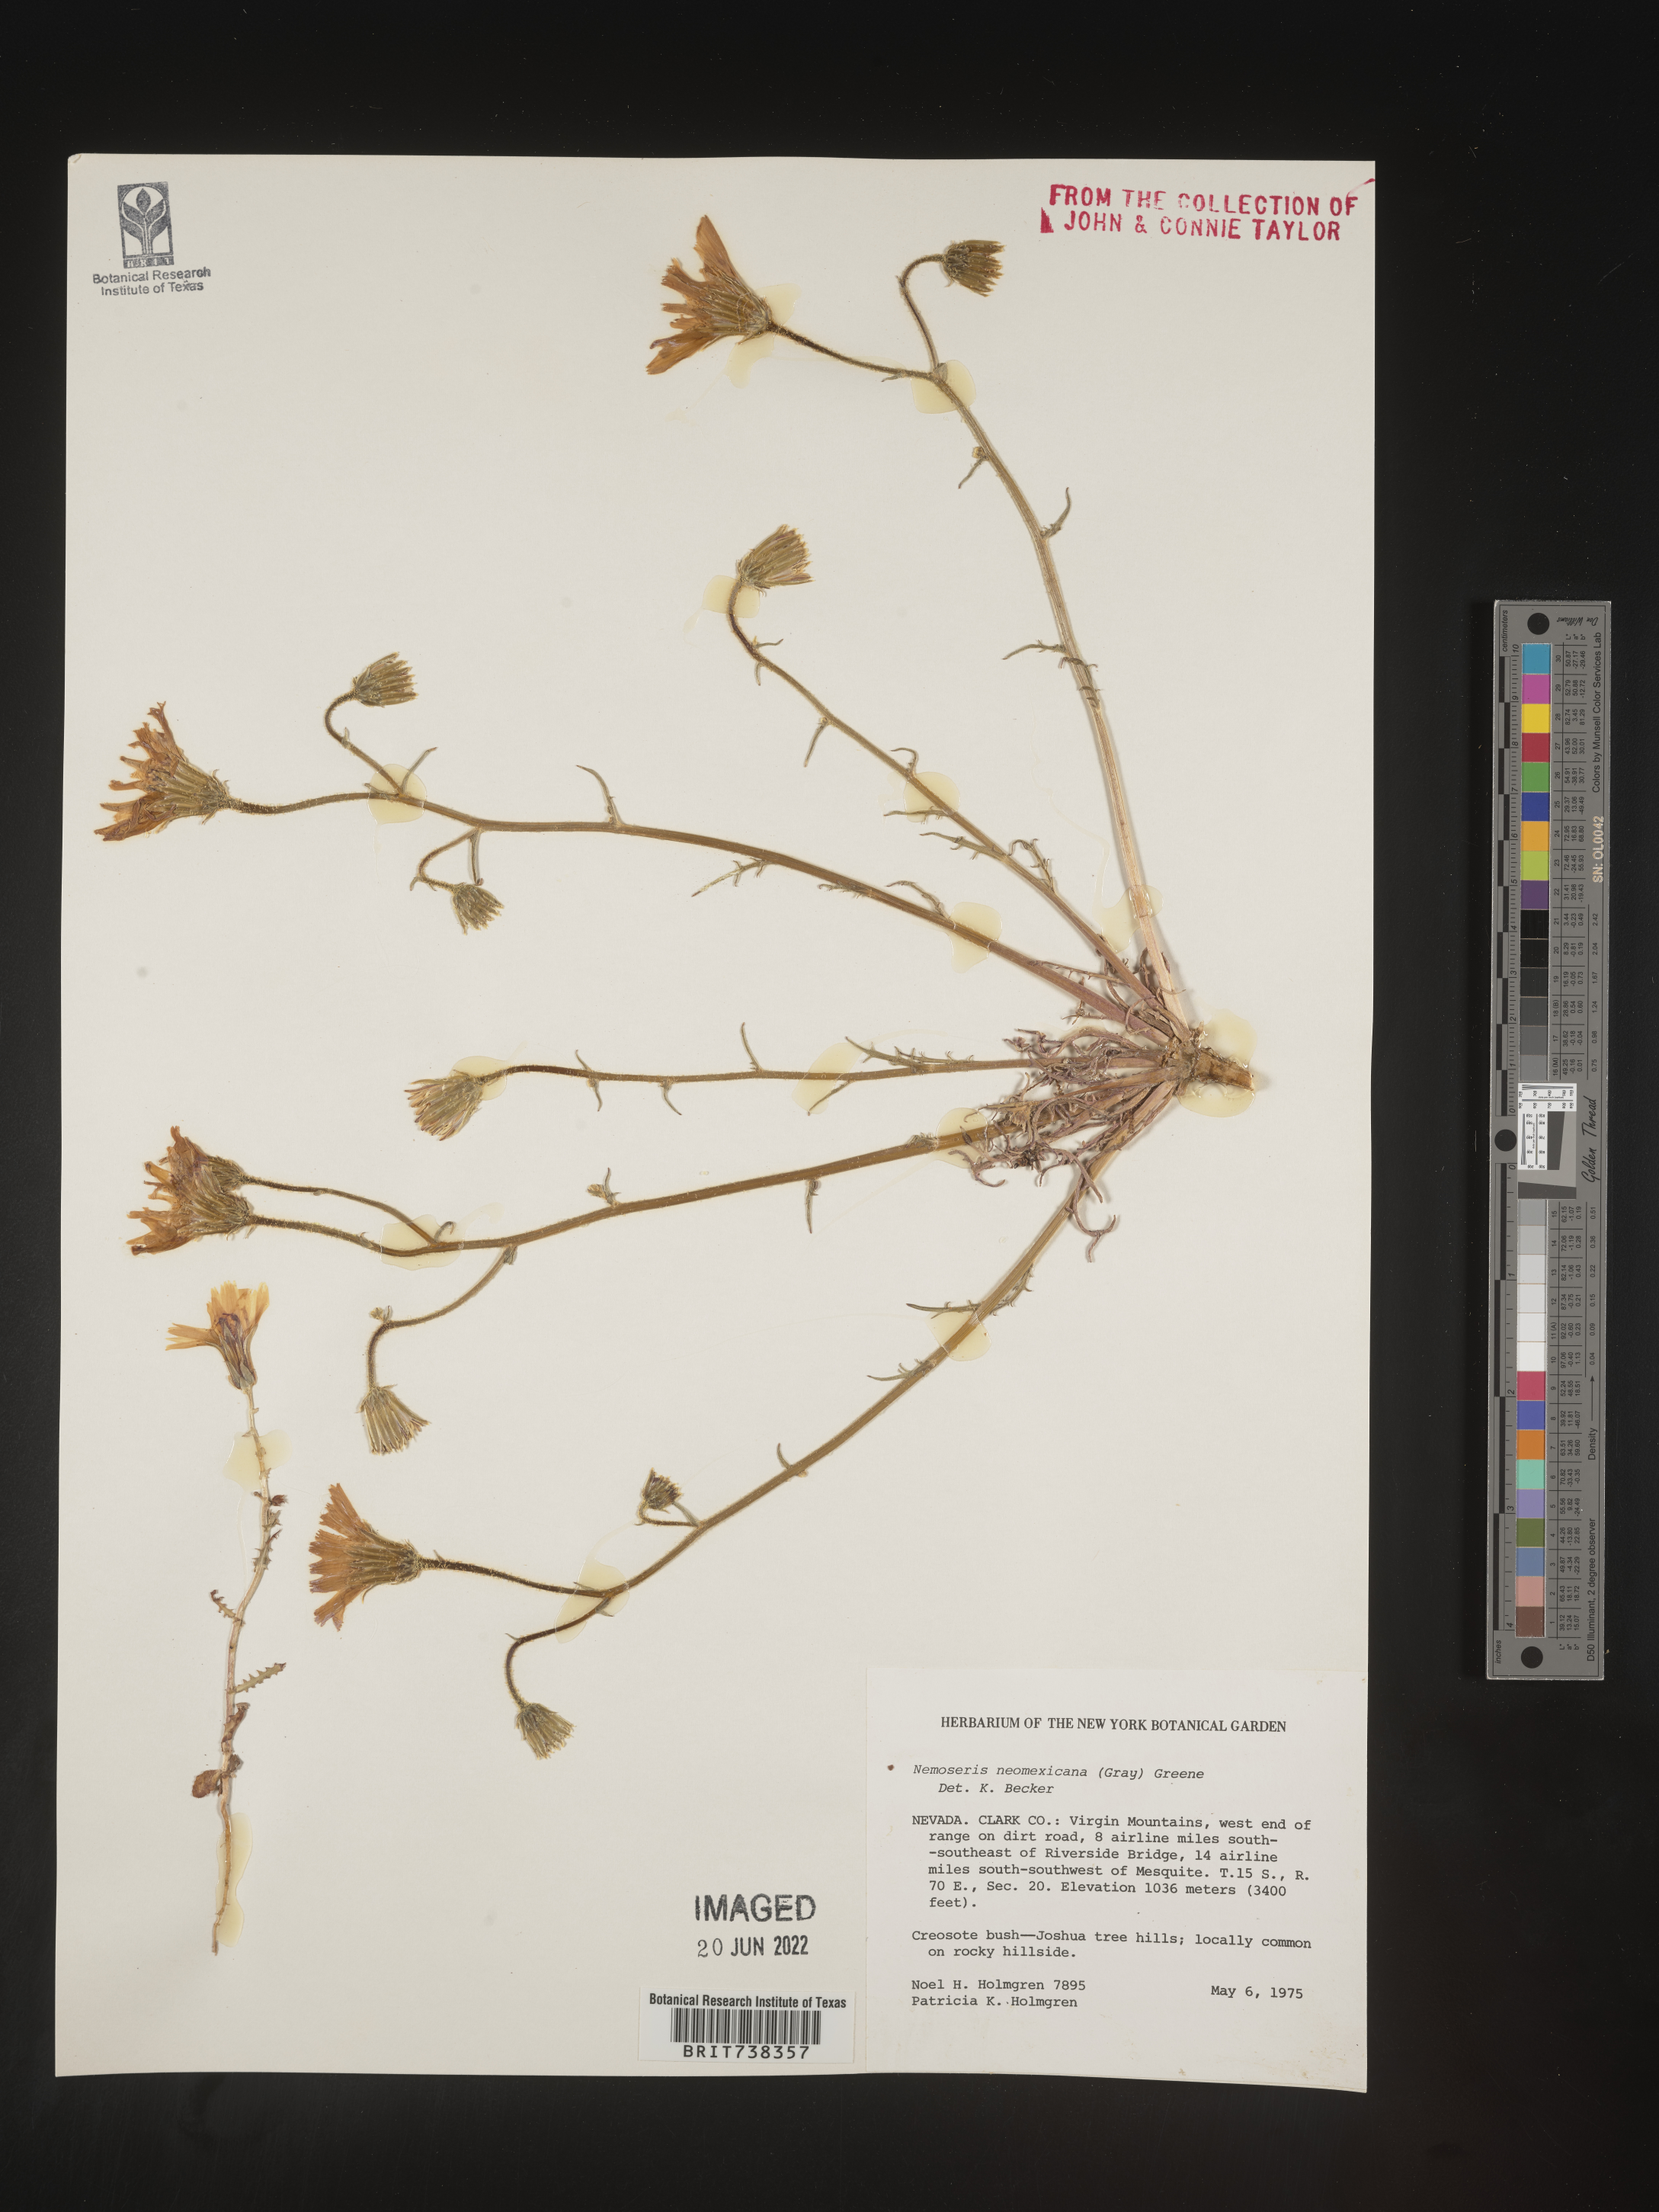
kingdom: Plantae
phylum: Tracheophyta
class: Magnoliopsida
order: Asterales
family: Asteraceae
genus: Rafinesquia
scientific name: Rafinesquia
